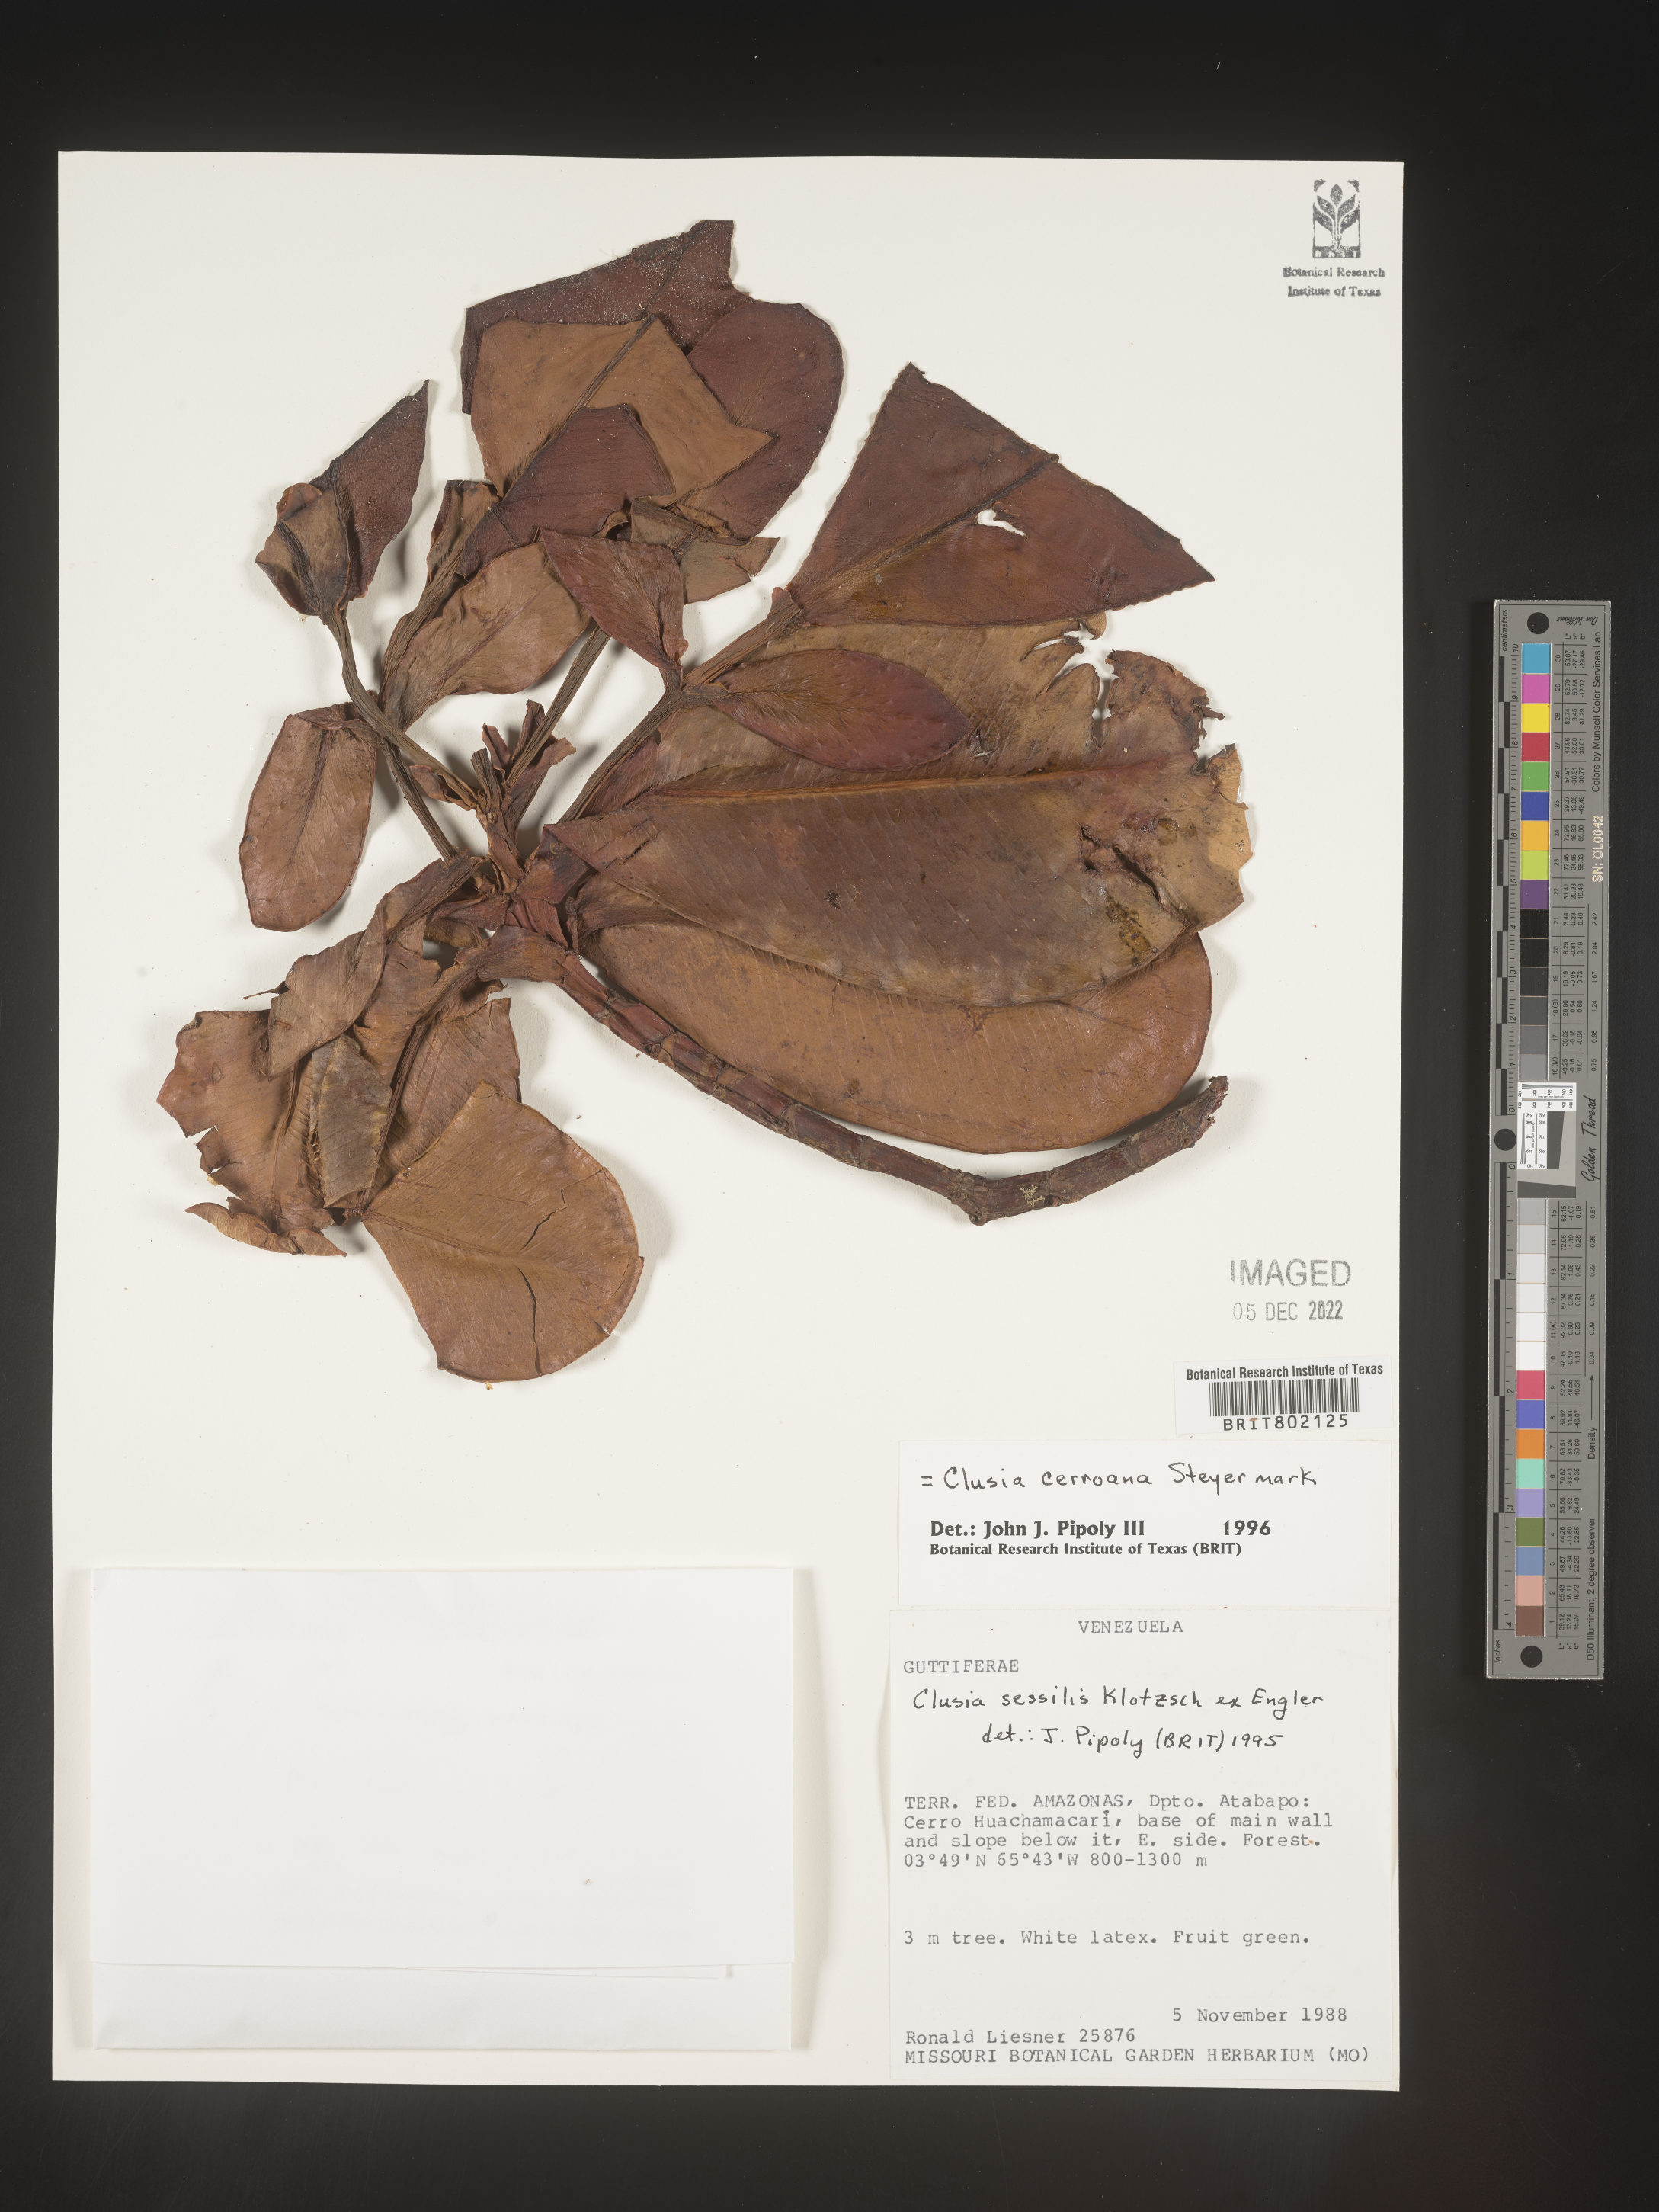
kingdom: Plantae
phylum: Tracheophyta
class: Magnoliopsida
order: Malpighiales
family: Clusiaceae
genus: Clusia
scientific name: Clusia cerroana
